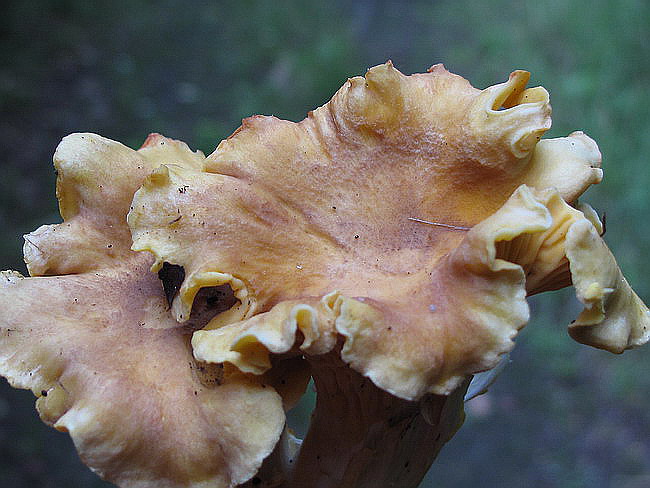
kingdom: Fungi
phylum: Basidiomycota
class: Agaricomycetes
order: Cantharellales
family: Hydnaceae
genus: Cantharellus
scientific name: Cantharellus amethysteus
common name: ametyst-kantarel
